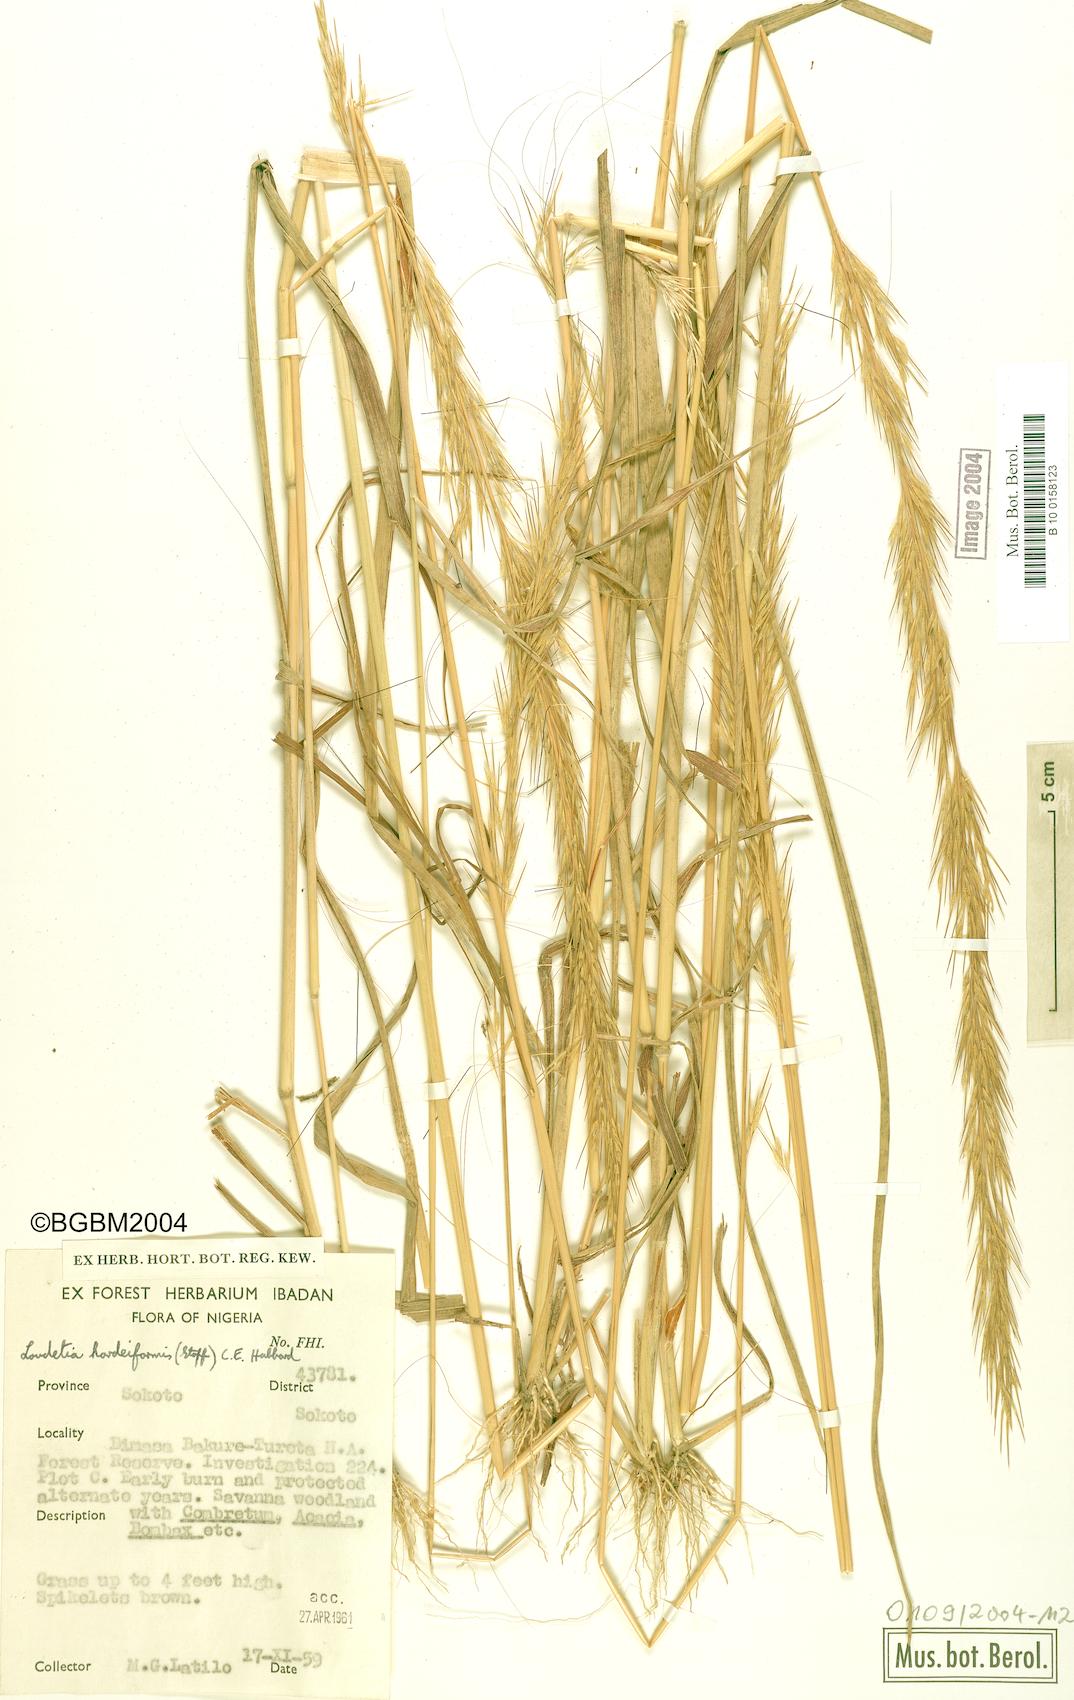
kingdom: Plantae
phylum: Tracheophyta
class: Liliopsida
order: Poales
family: Poaceae
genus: Loudetia
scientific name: Loudetia hordeiformis
